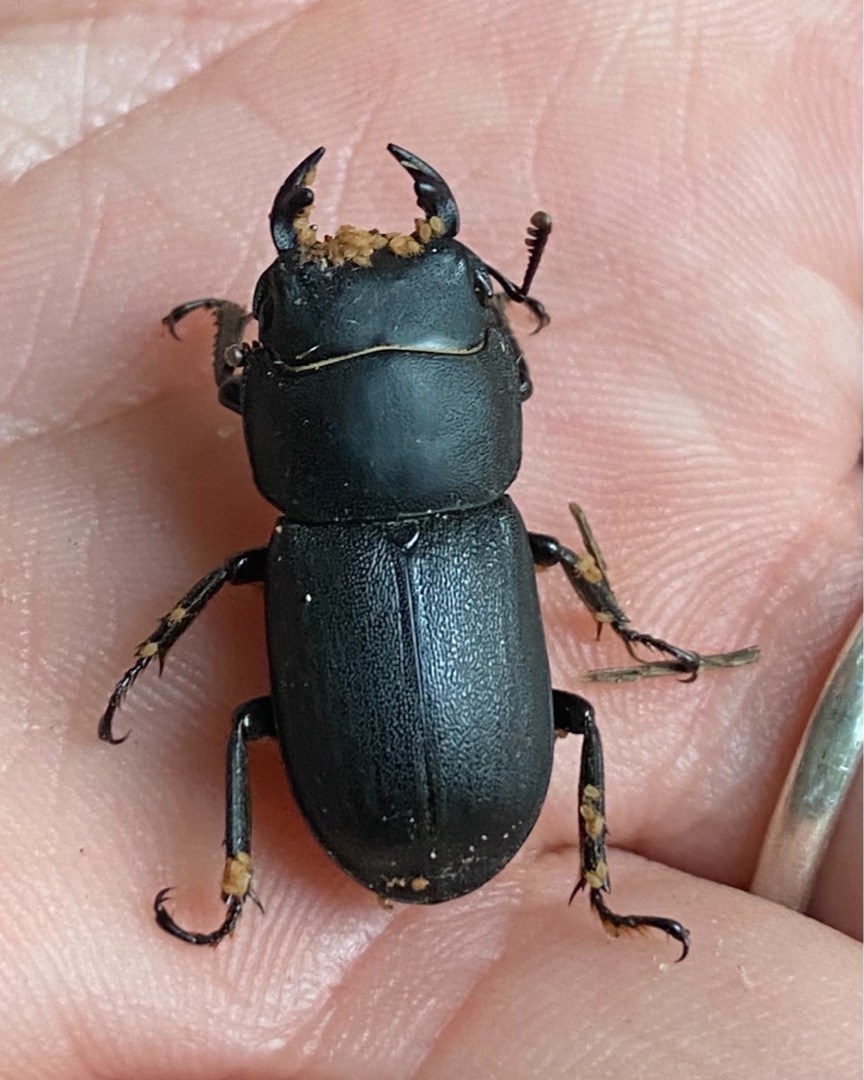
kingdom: Animalia
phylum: Arthropoda
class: Insecta
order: Coleoptera
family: Lucanidae
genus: Dorcus
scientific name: Dorcus parallelipipedus
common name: Bøghjort
